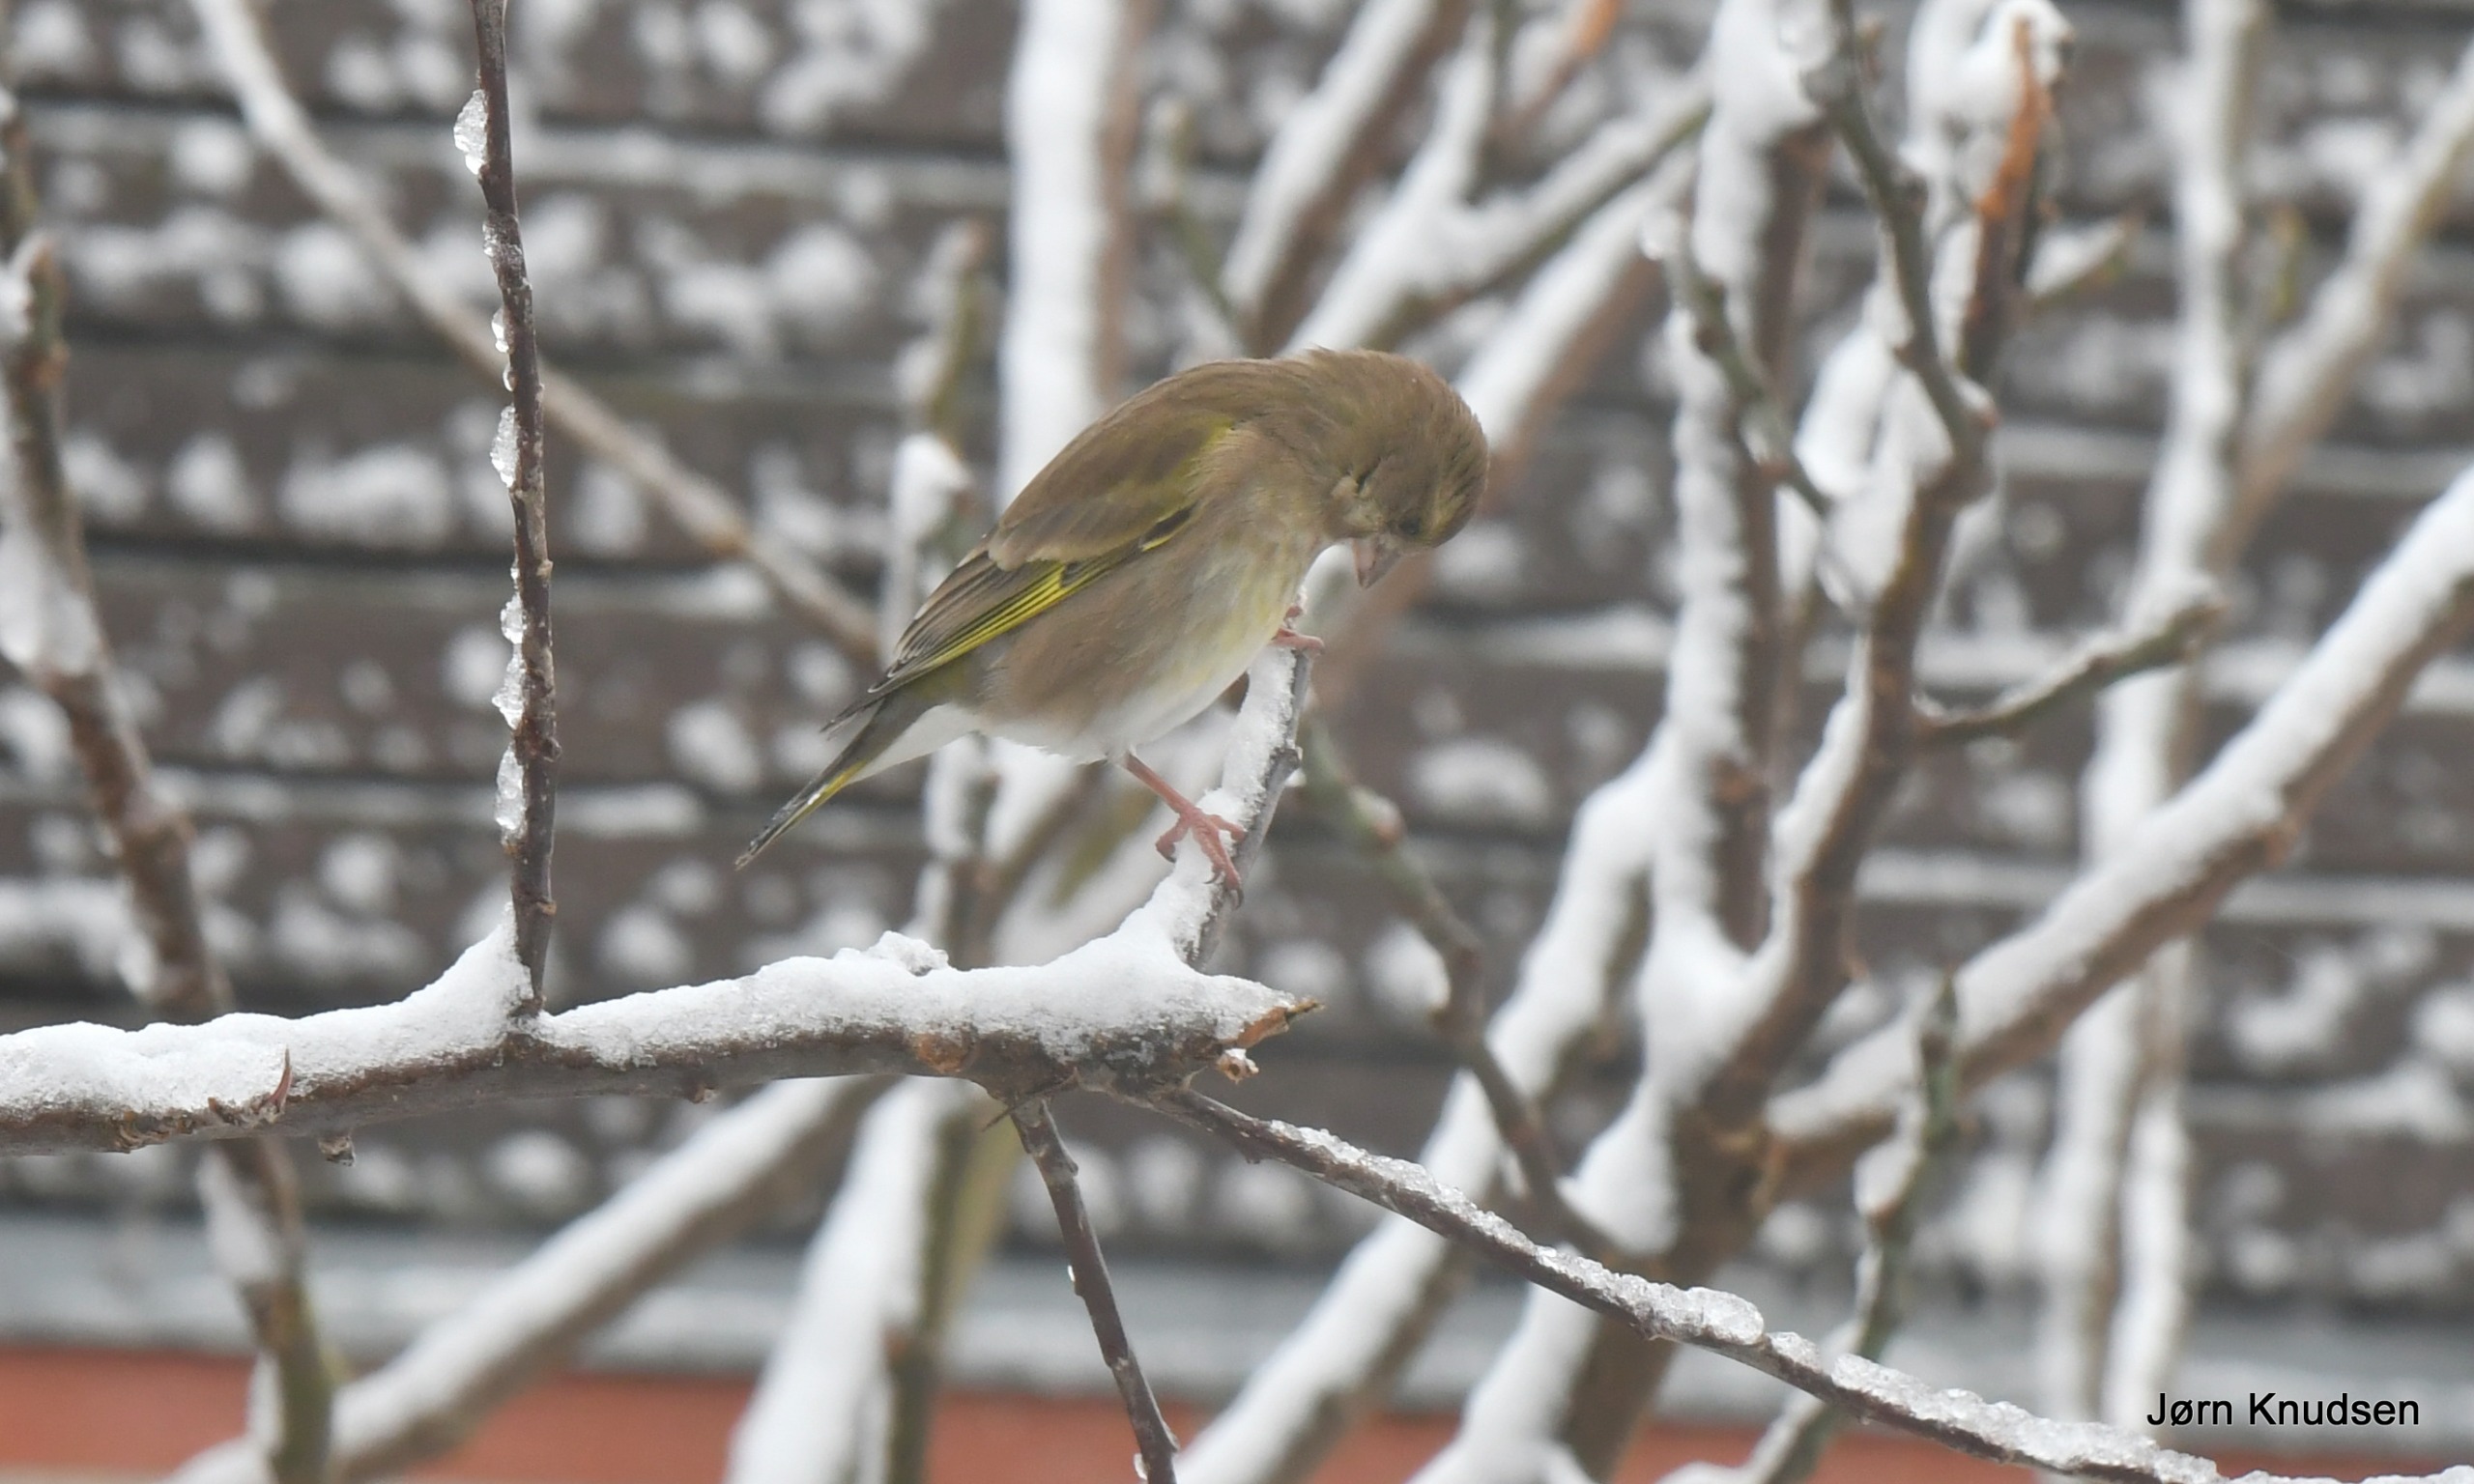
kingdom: Plantae
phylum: Tracheophyta
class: Liliopsida
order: Poales
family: Poaceae
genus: Chloris
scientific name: Chloris chloris
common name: Grønirisk
